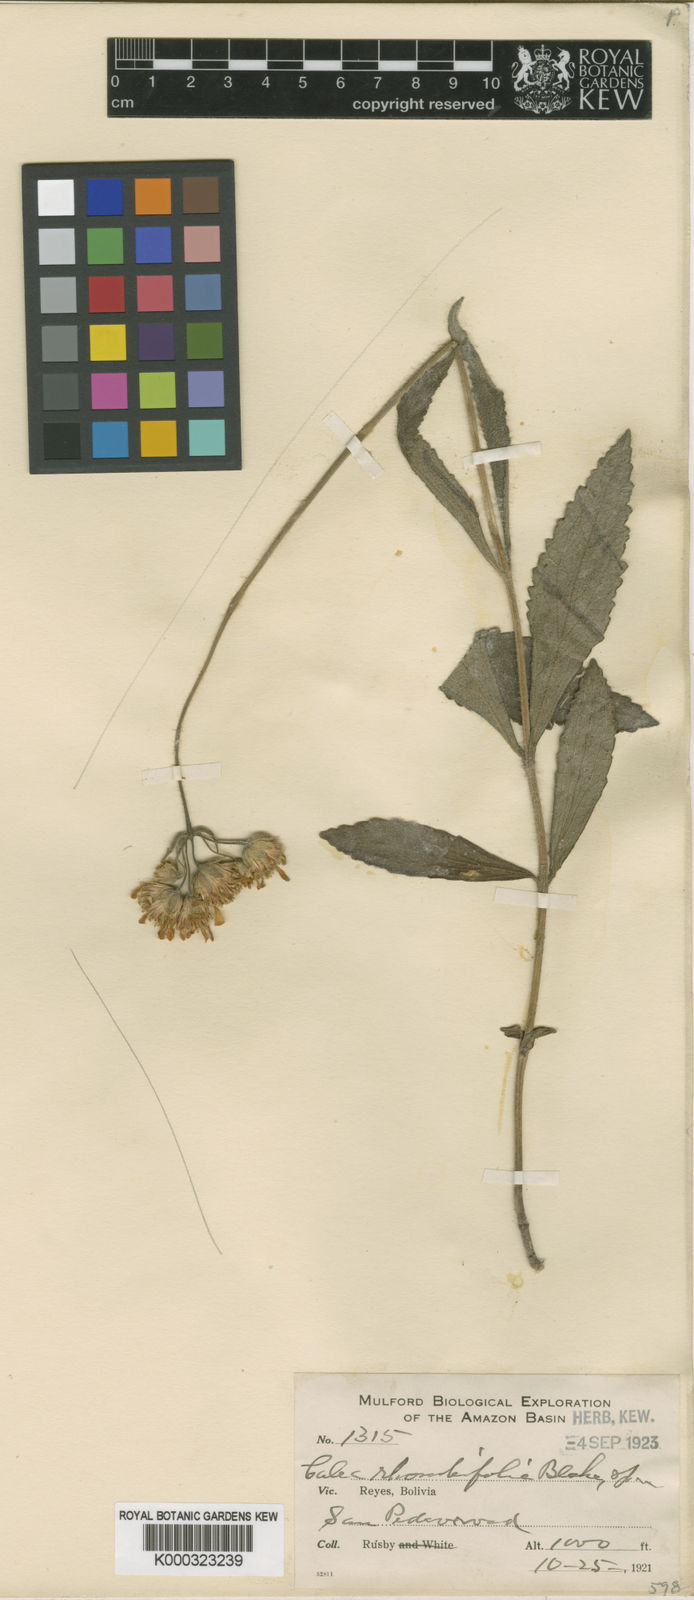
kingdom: Plantae
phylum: Tracheophyta
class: Magnoliopsida
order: Asterales
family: Asteraceae
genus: Calea
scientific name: Calea rhombifolia
